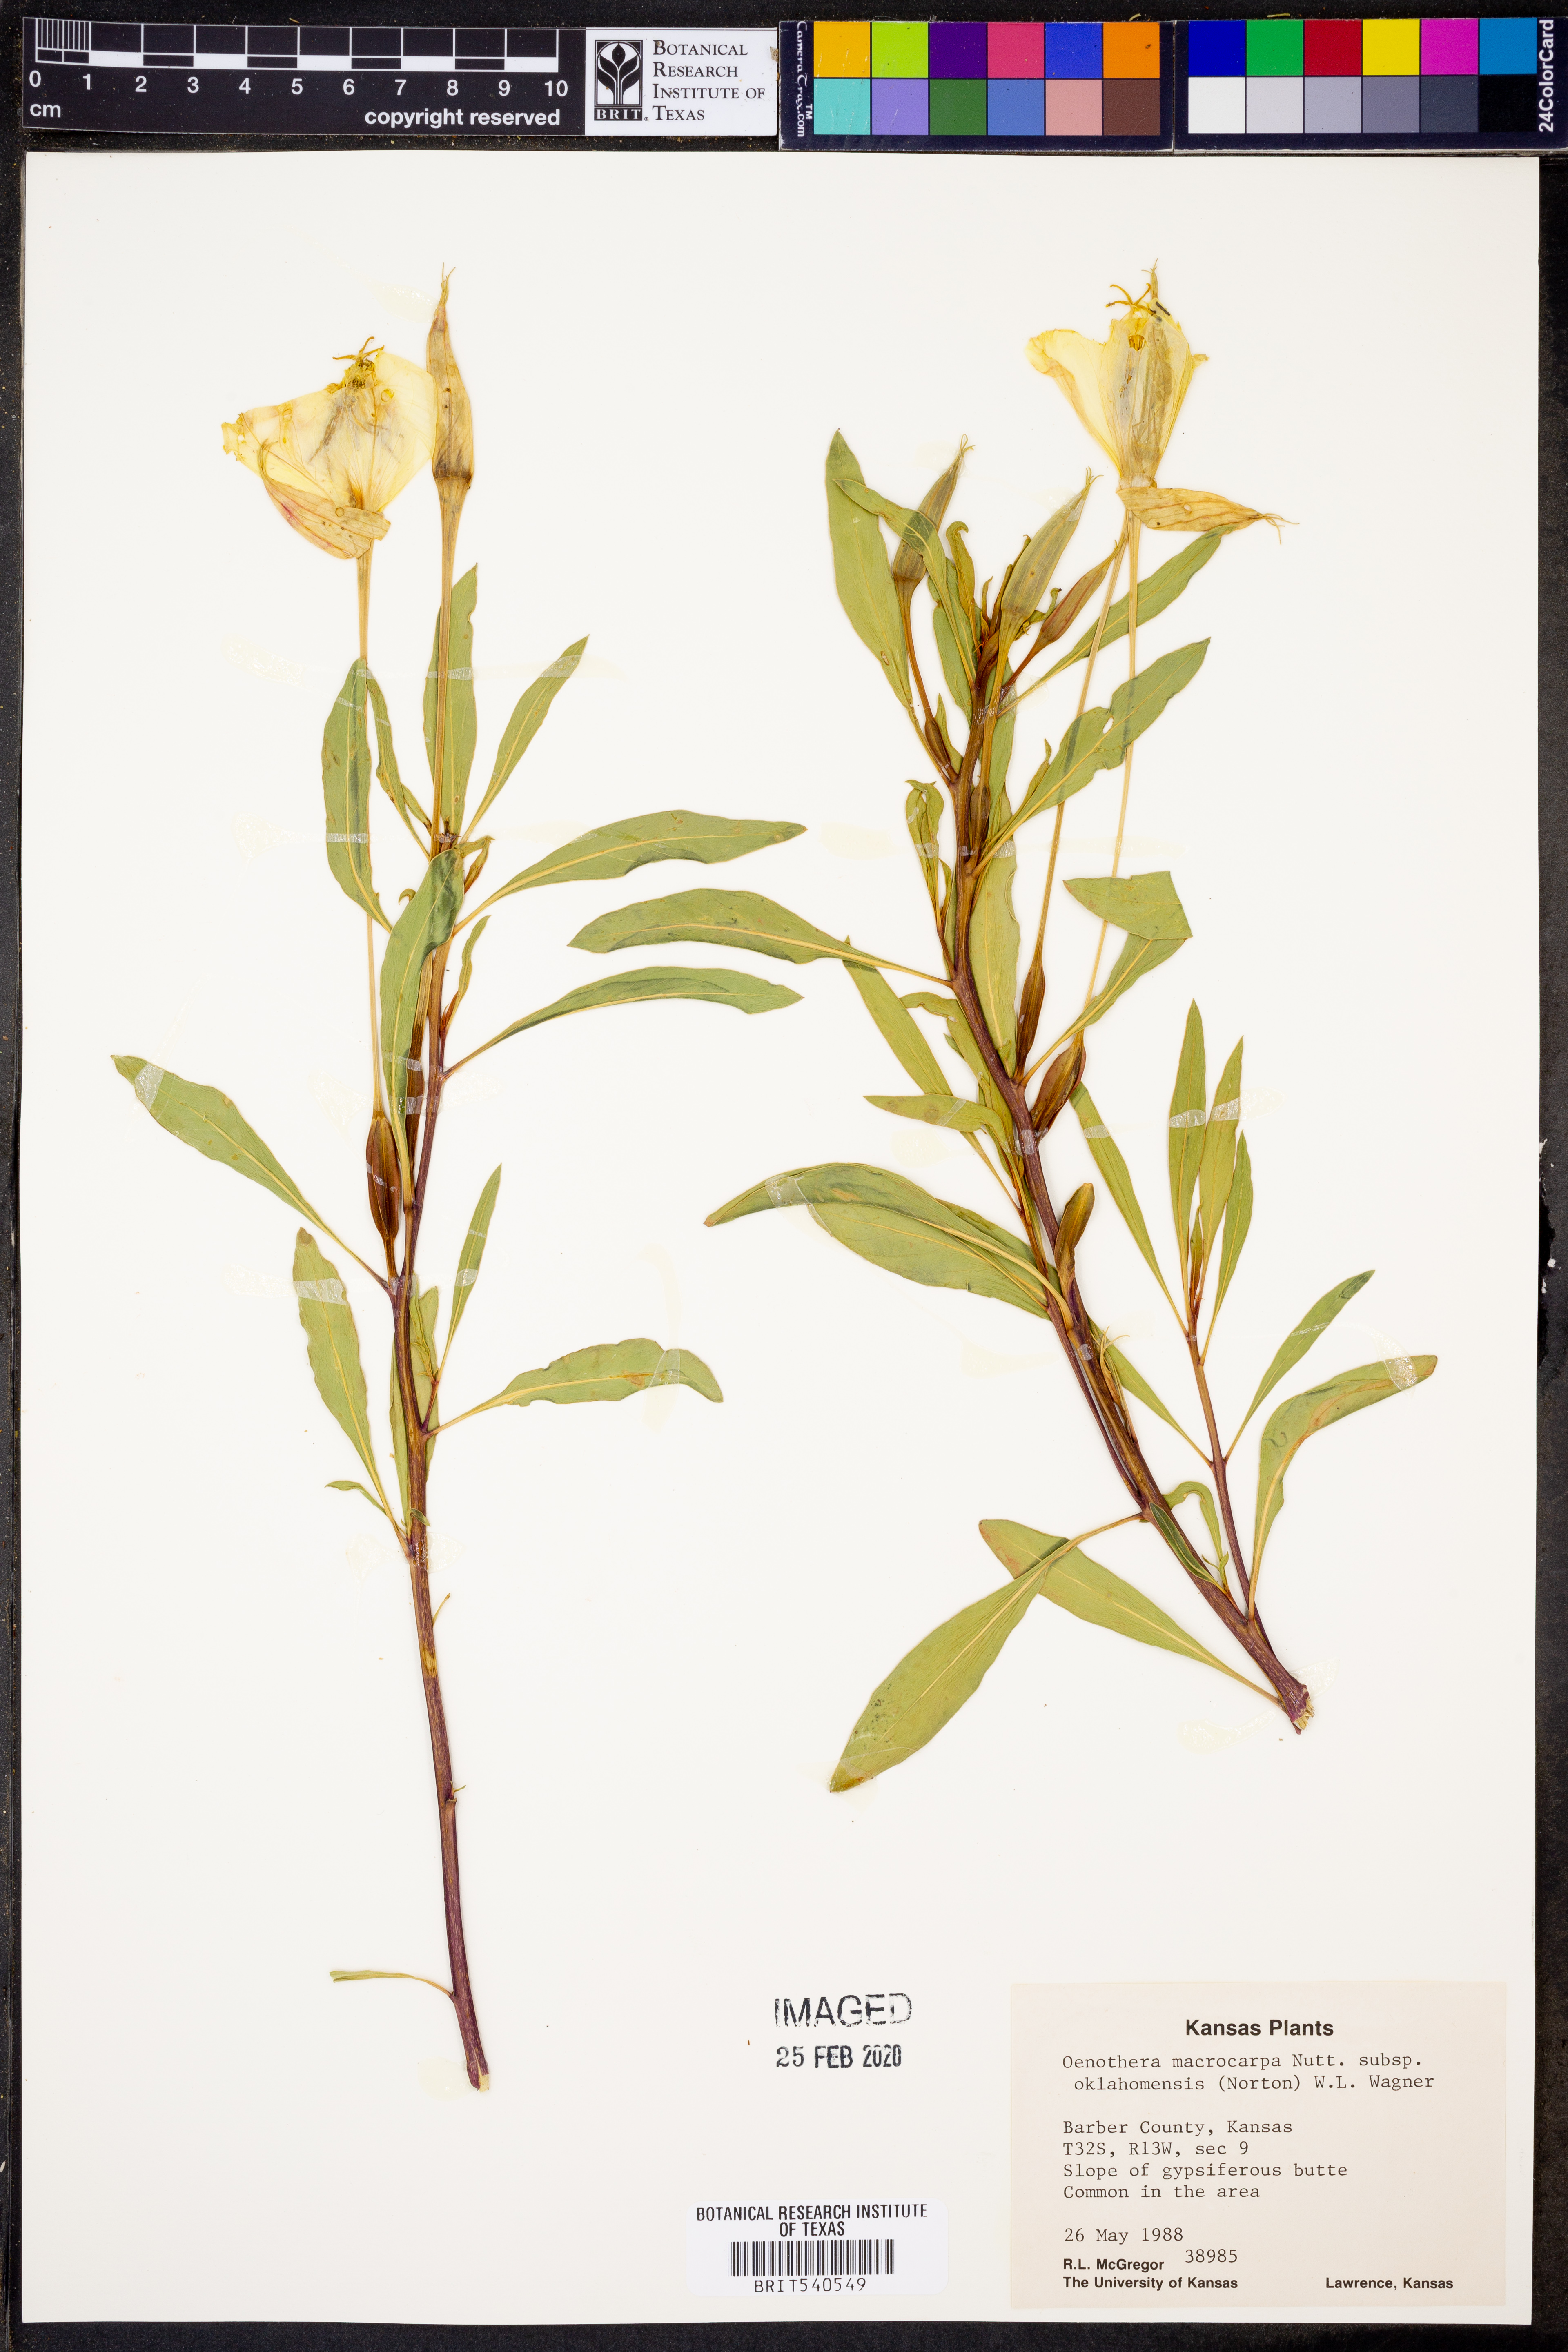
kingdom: Plantae
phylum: Tracheophyta
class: Magnoliopsida
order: Myrtales
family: Onagraceae
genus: Oenothera
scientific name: Oenothera macrocarpa
